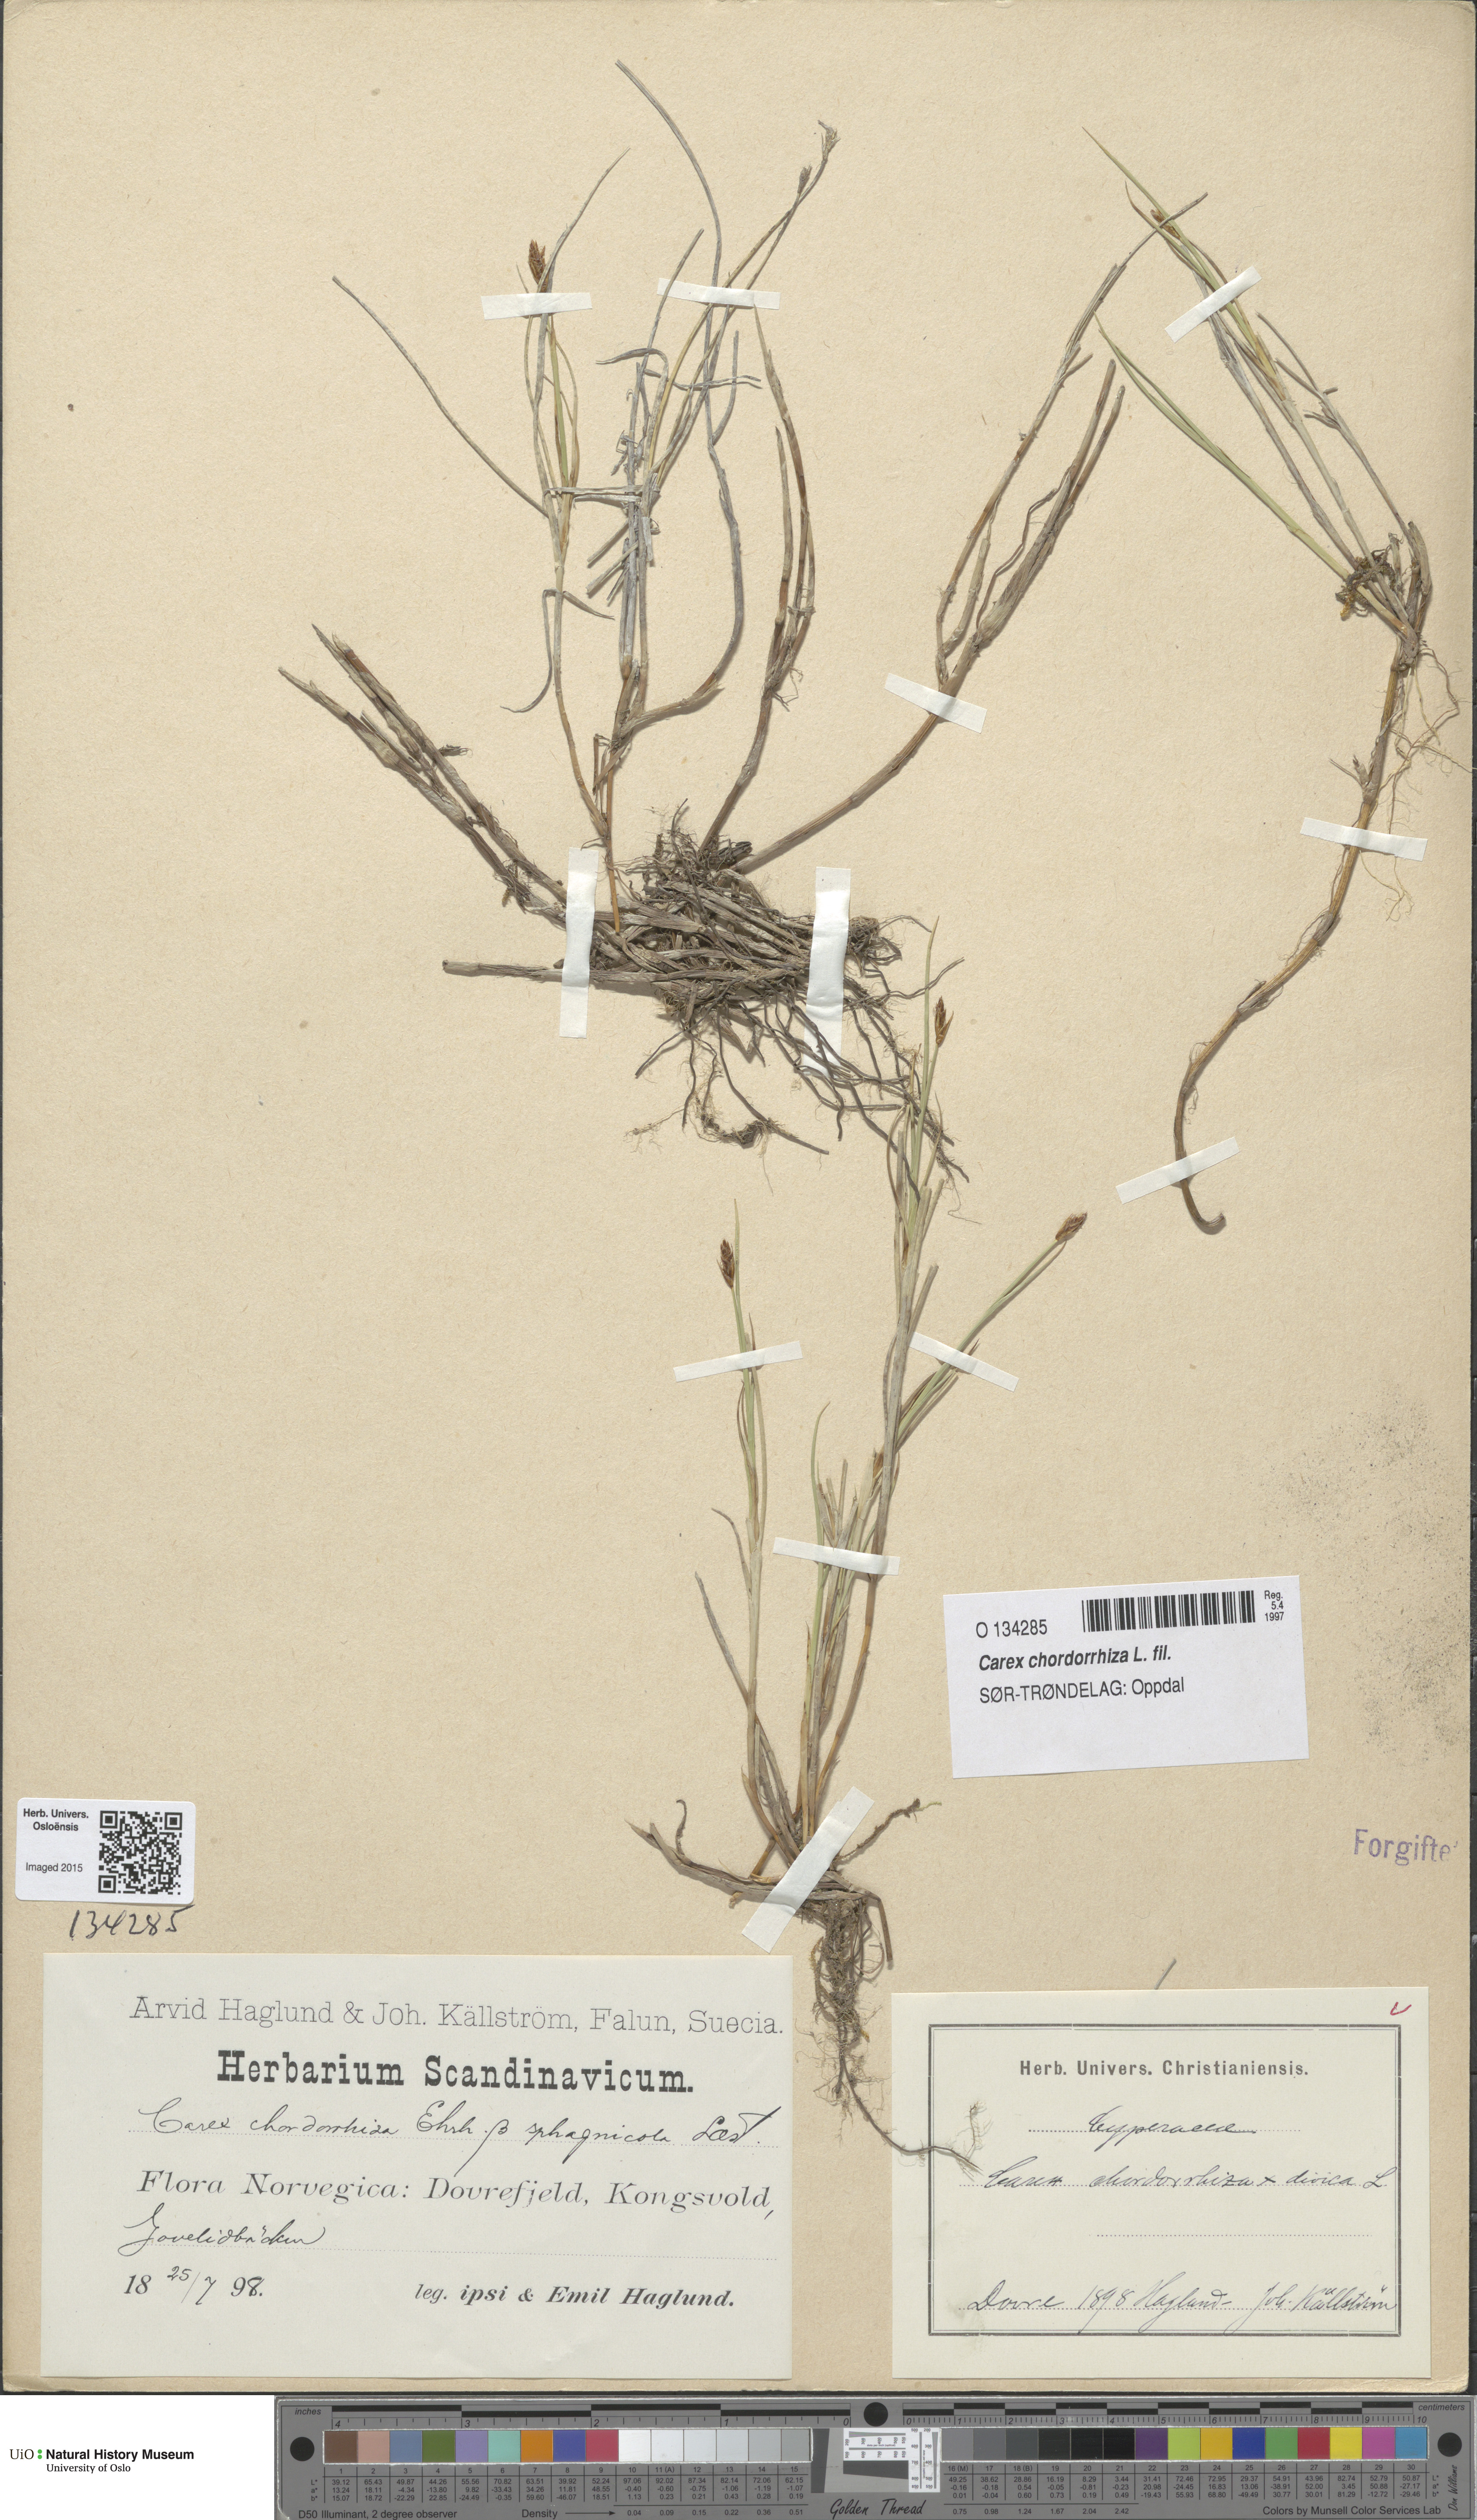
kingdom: Plantae
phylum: Tracheophyta
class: Liliopsida
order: Poales
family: Cyperaceae
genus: Carex
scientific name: Carex chordorrhiza
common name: String sedge
